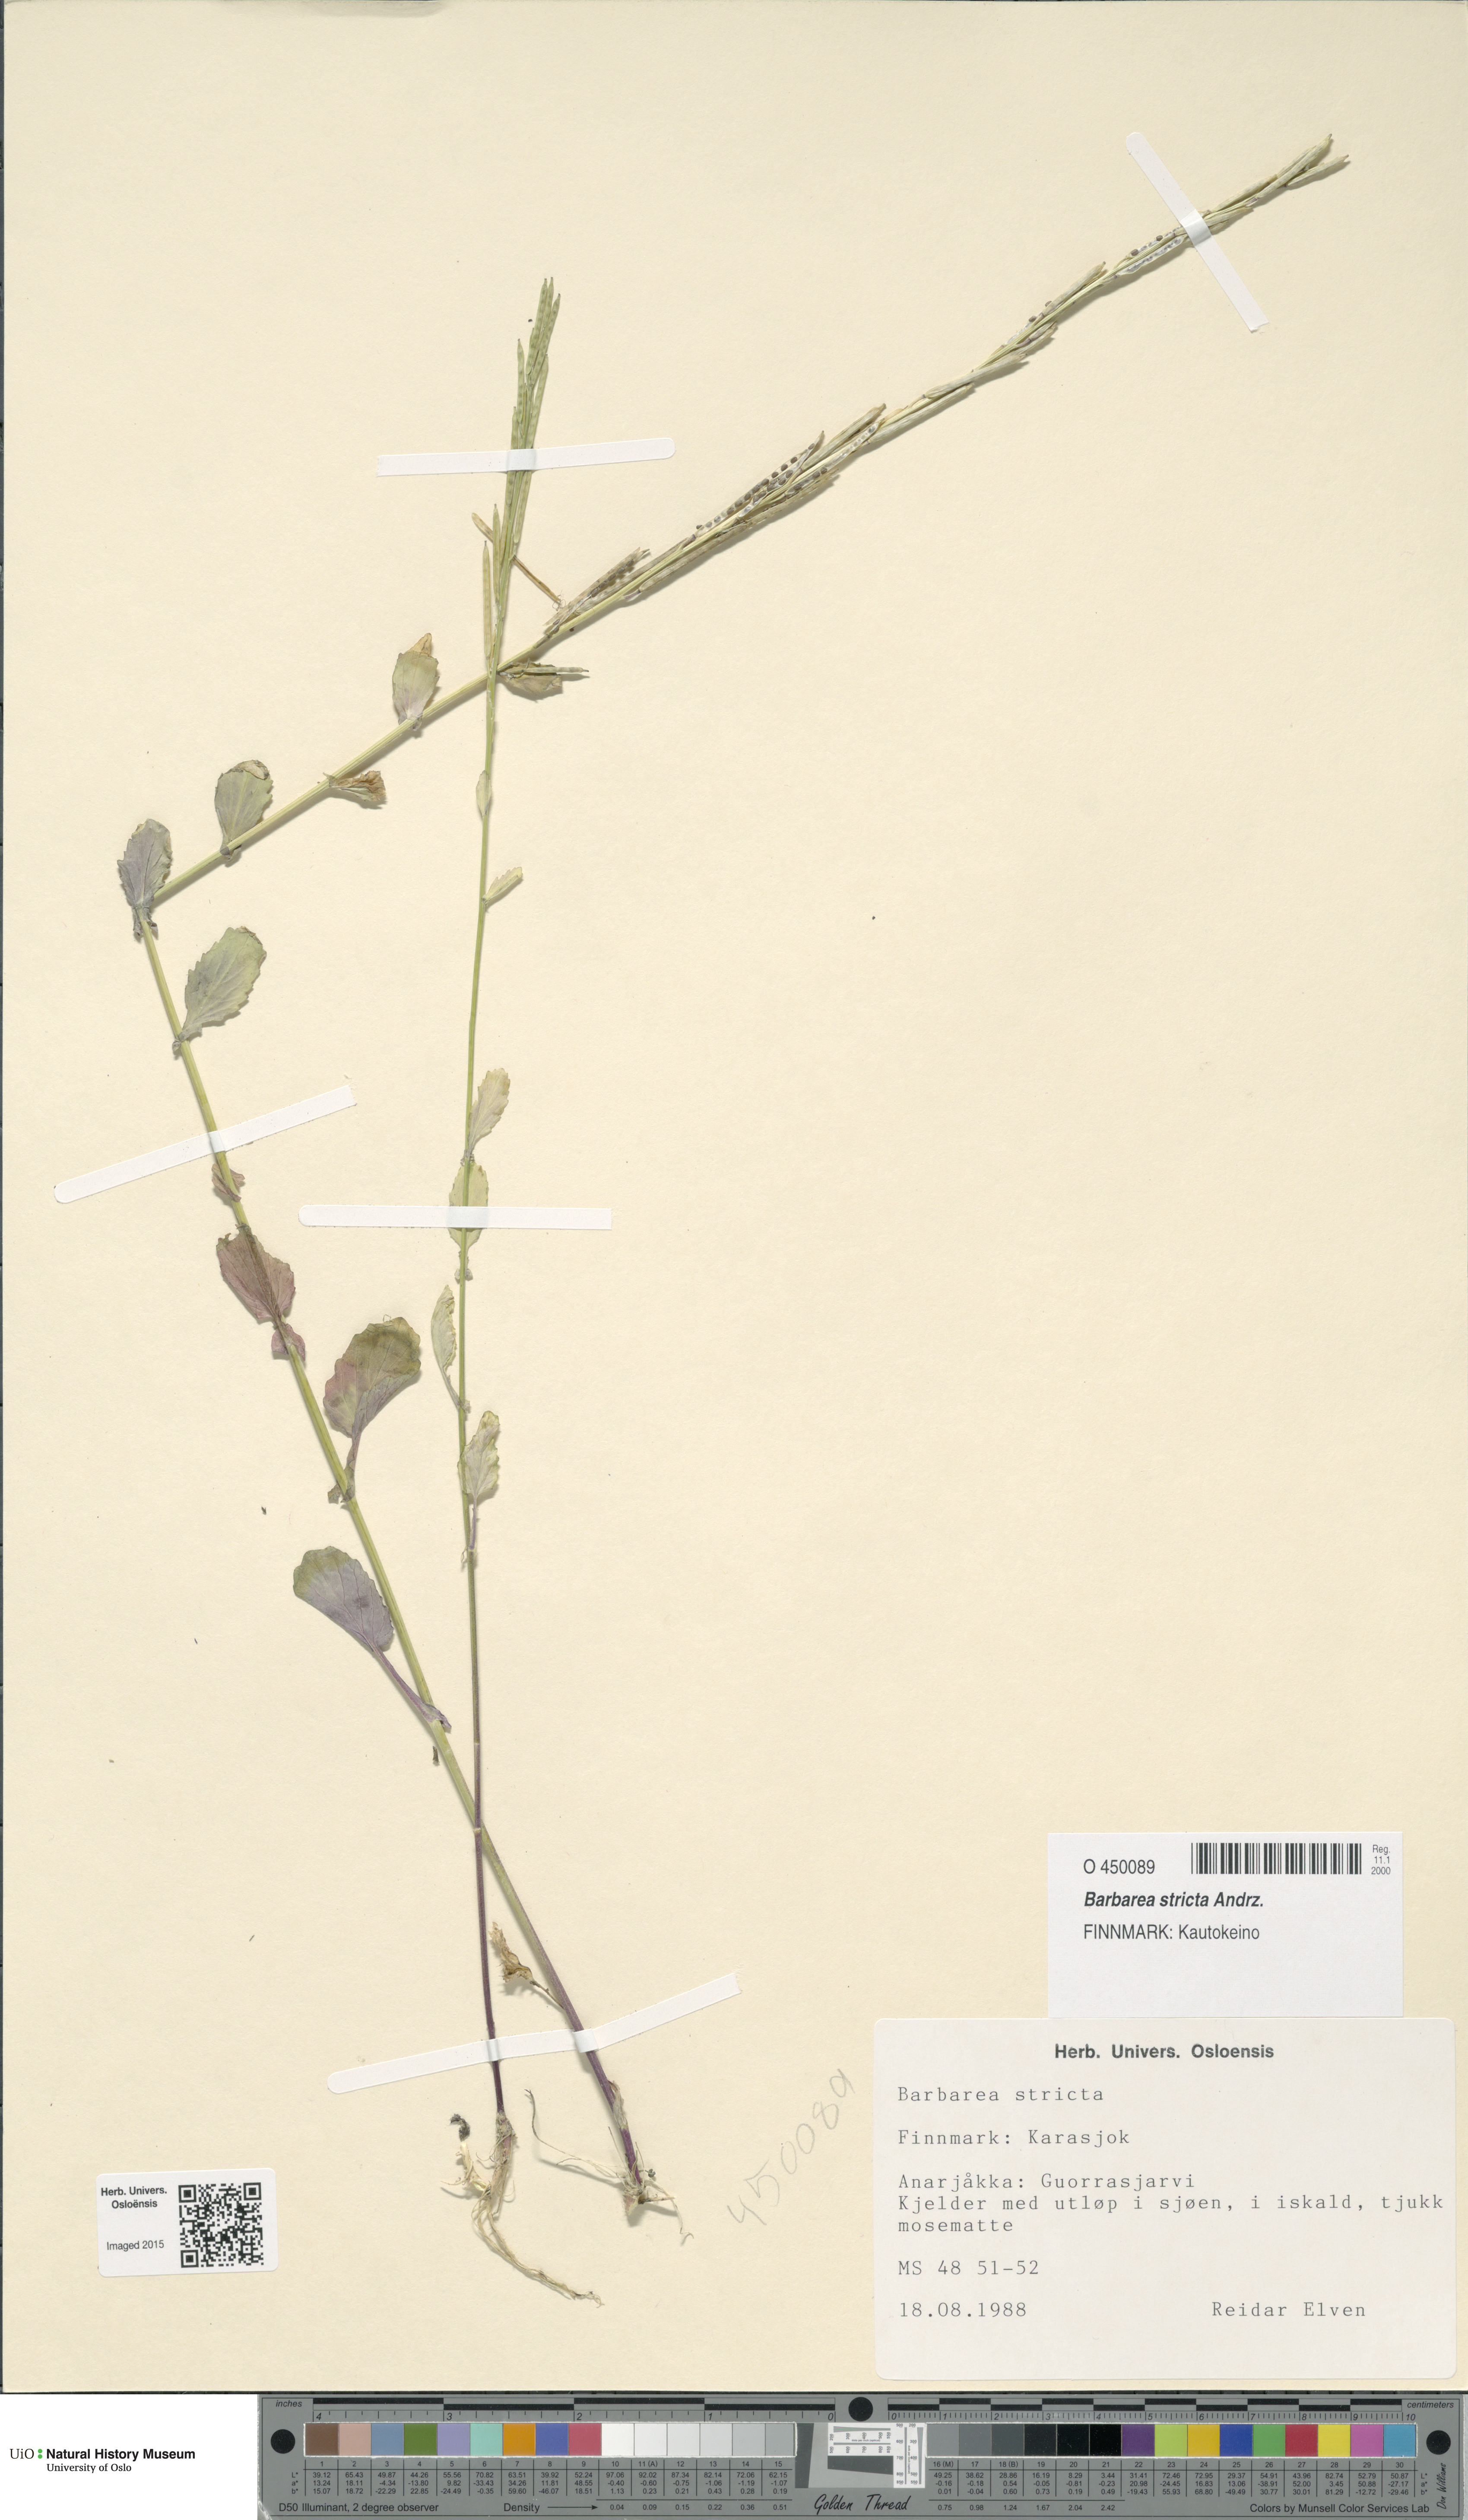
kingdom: Plantae
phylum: Tracheophyta
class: Magnoliopsida
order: Brassicales
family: Brassicaceae
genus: Barbarea
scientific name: Barbarea stricta
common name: Small-flowered winter-cress
